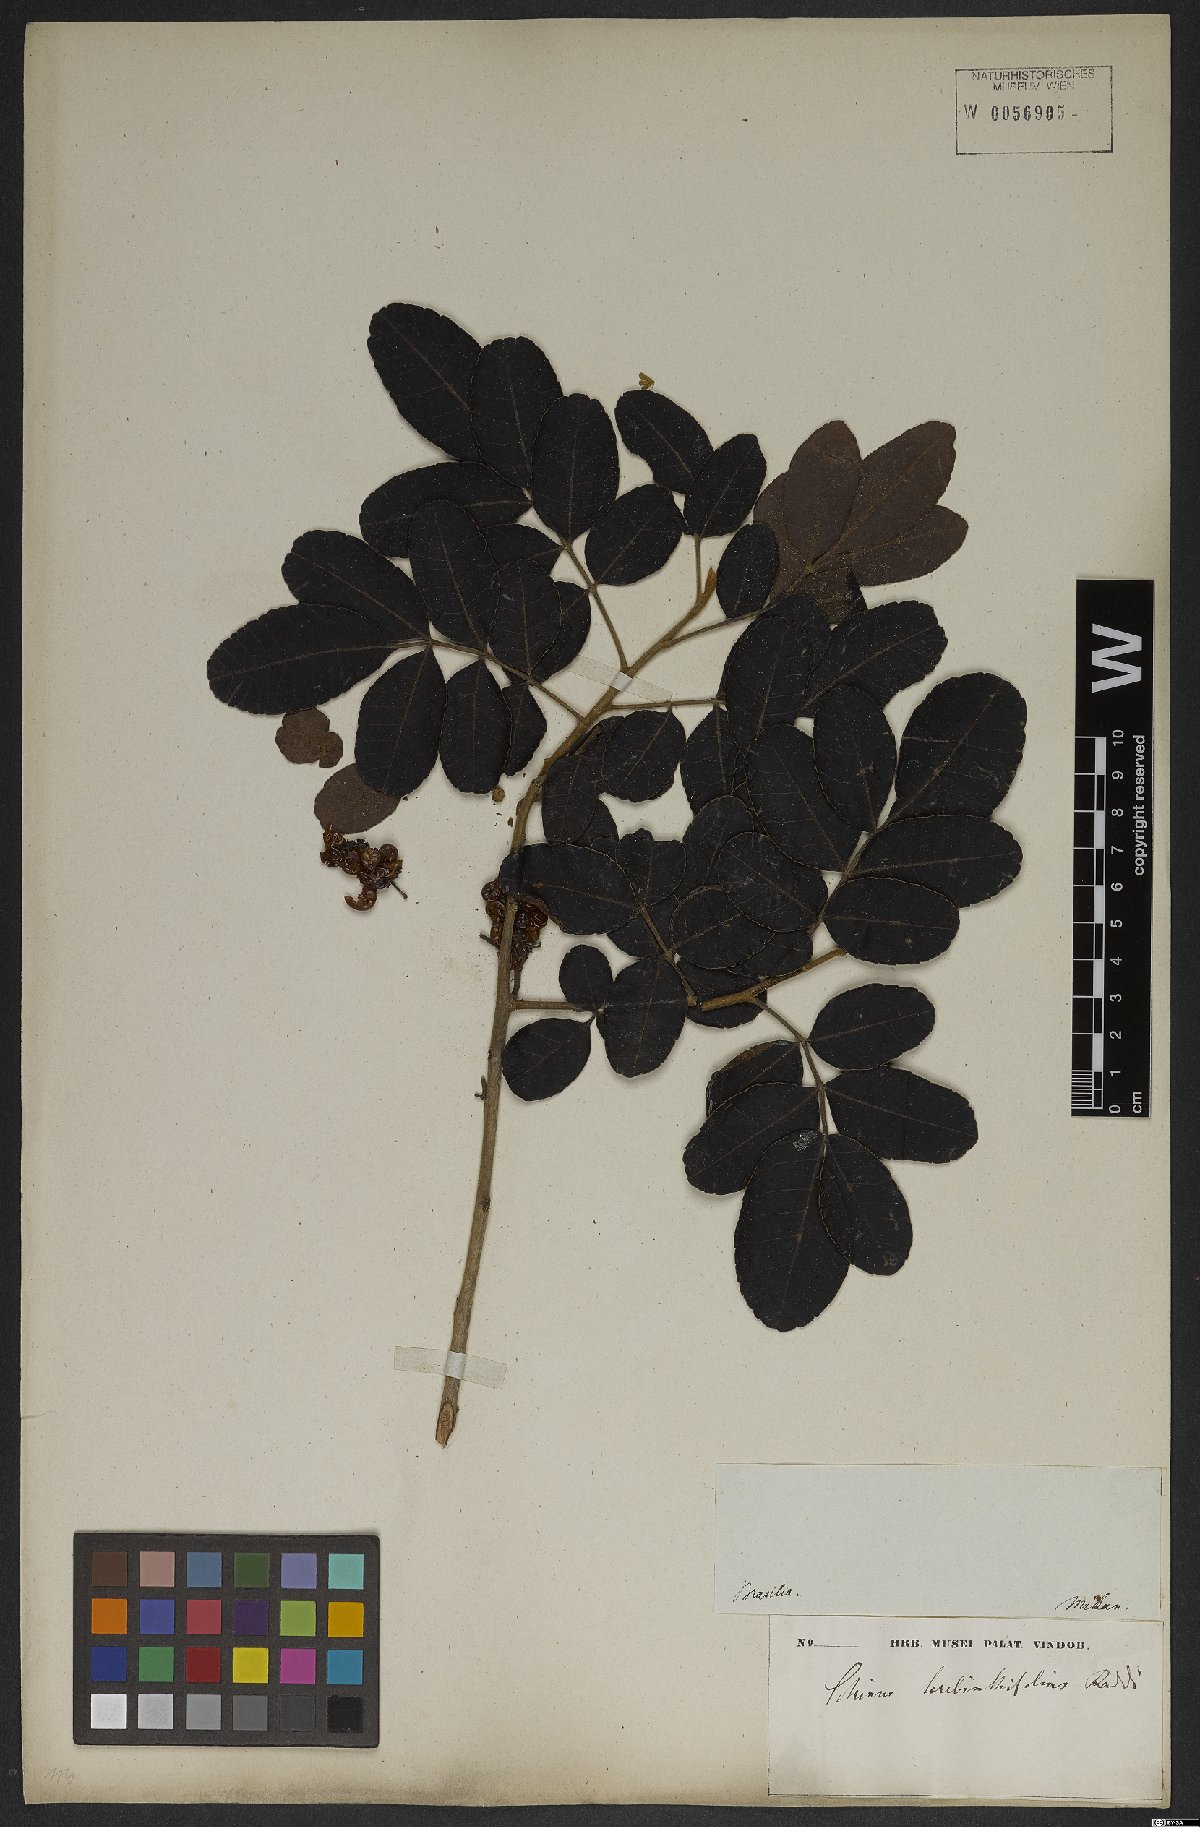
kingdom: Plantae
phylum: Tracheophyta
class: Magnoliopsida
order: Sapindales
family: Anacardiaceae
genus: Schinus
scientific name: Schinus terebinthifolia
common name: Brazilian peppertree
